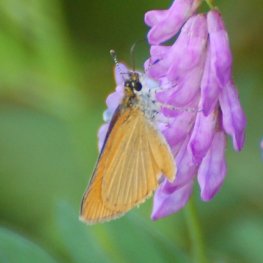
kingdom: Animalia
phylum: Arthropoda
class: Insecta
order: Lepidoptera
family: Hesperiidae
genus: Thymelicus
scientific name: Thymelicus lineola
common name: European Skipper
